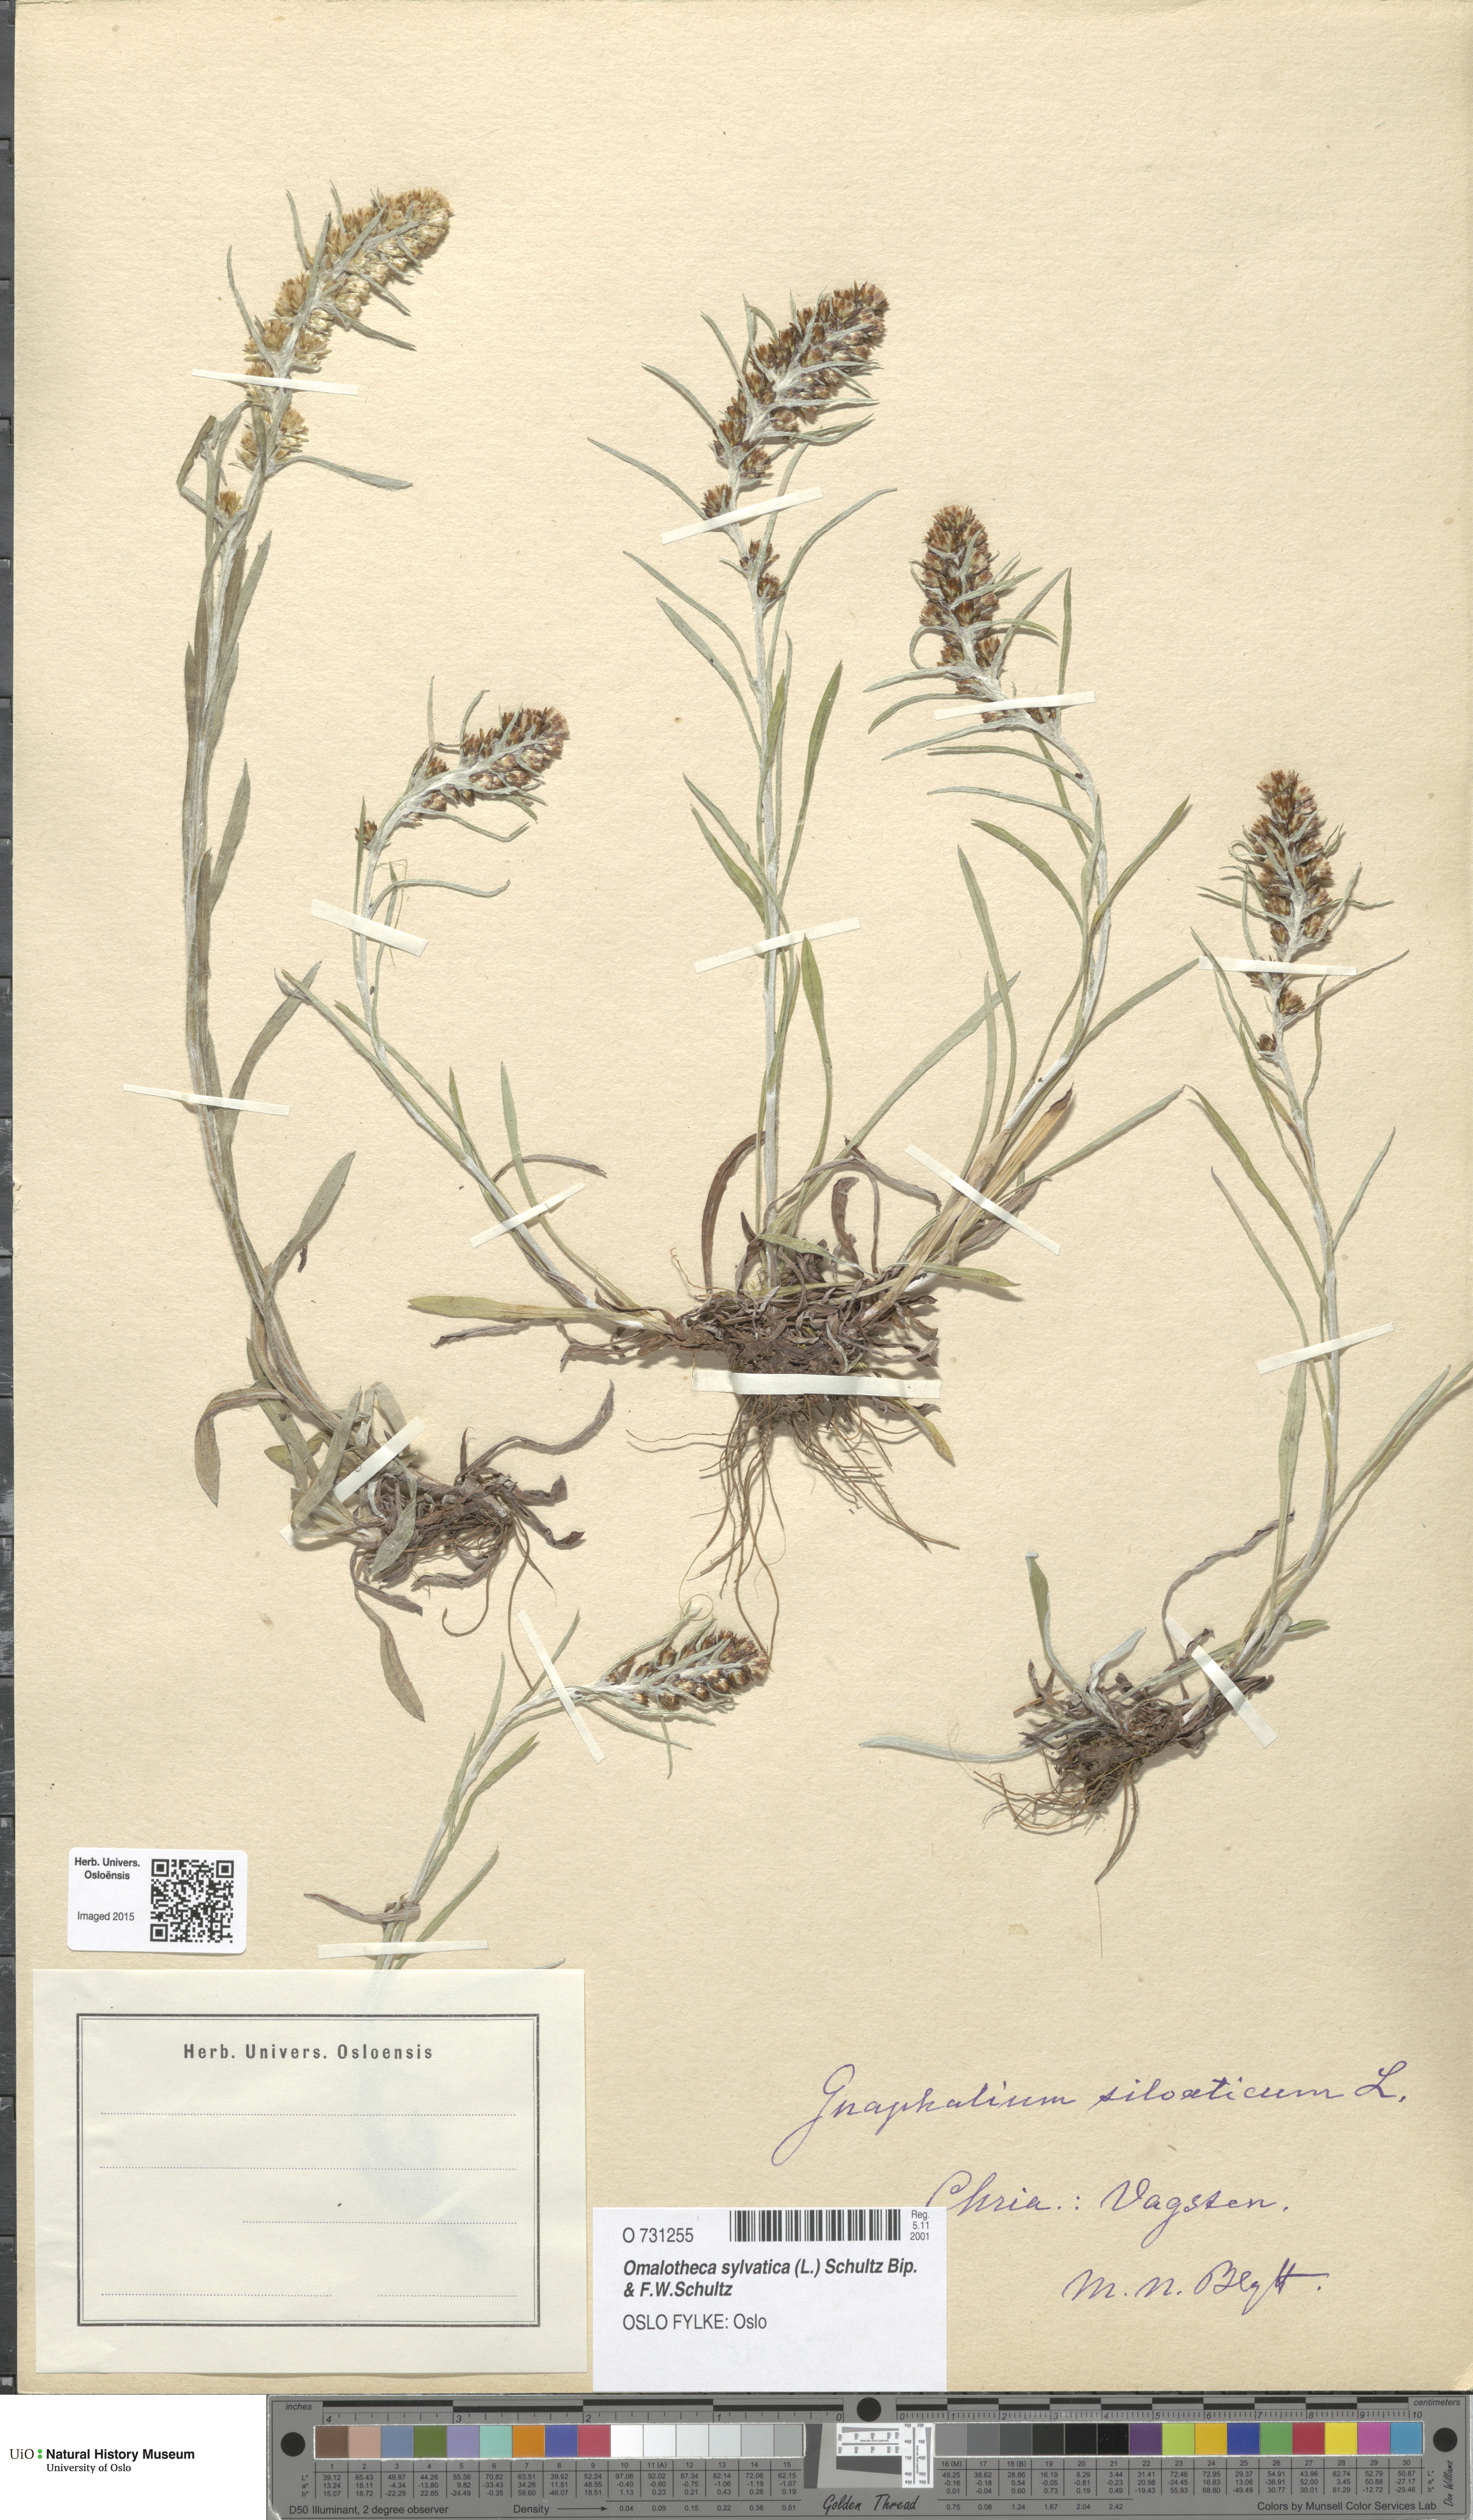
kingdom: Plantae
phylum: Tracheophyta
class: Magnoliopsida
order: Asterales
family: Asteraceae
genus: Omalotheca
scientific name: Omalotheca sylvatica
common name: Heath cudweed
